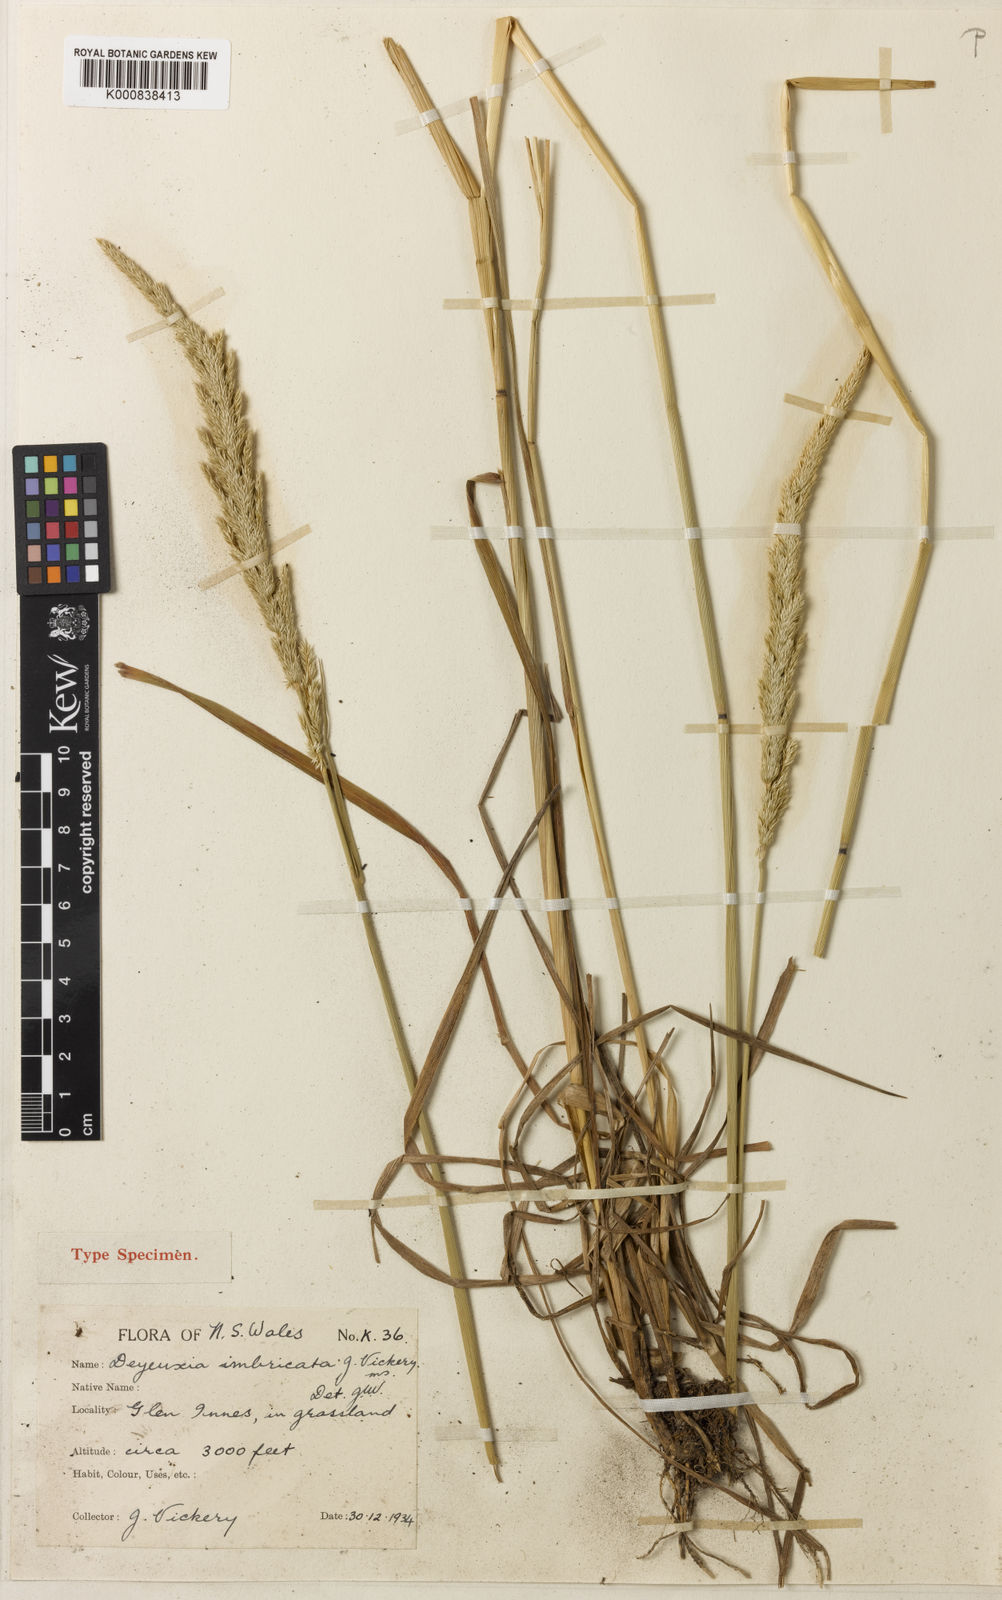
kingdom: Plantae
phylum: Tracheophyta
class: Liliopsida
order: Poales
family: Poaceae
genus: Calamagrostis
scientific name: Calamagrostis imbricata
